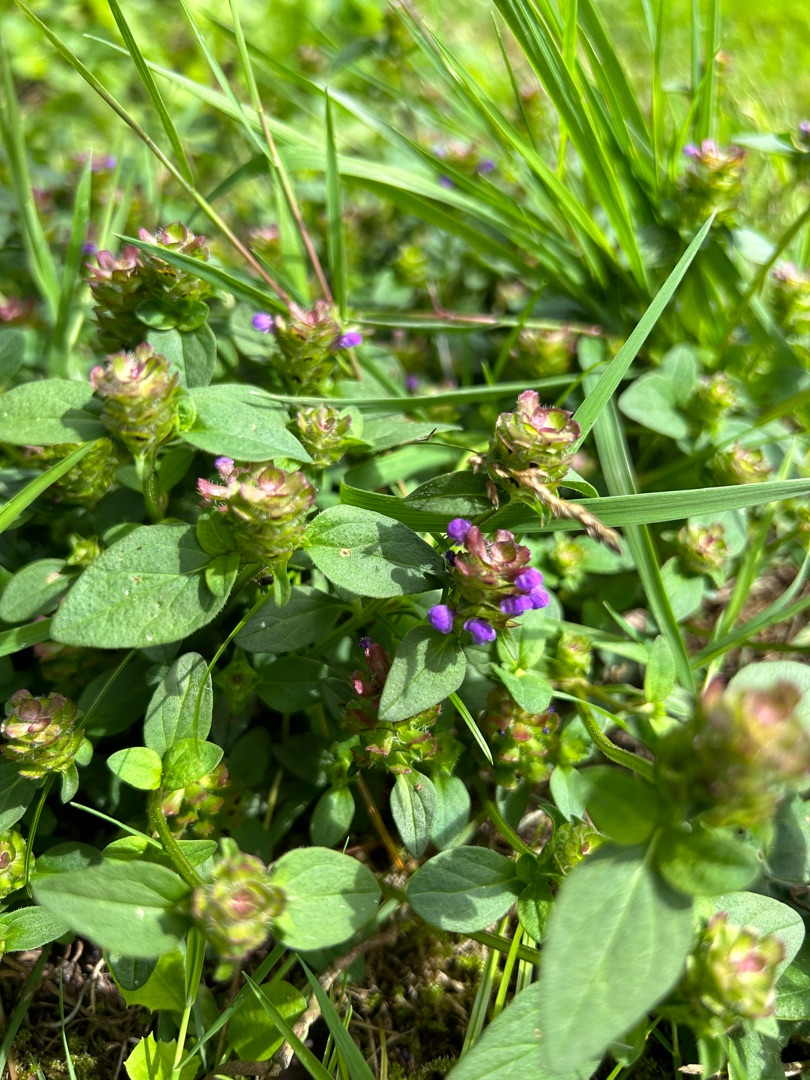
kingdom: Plantae
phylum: Tracheophyta
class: Magnoliopsida
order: Lamiales
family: Lamiaceae
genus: Prunella
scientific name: Prunella vulgaris
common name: Almindelig brunelle
